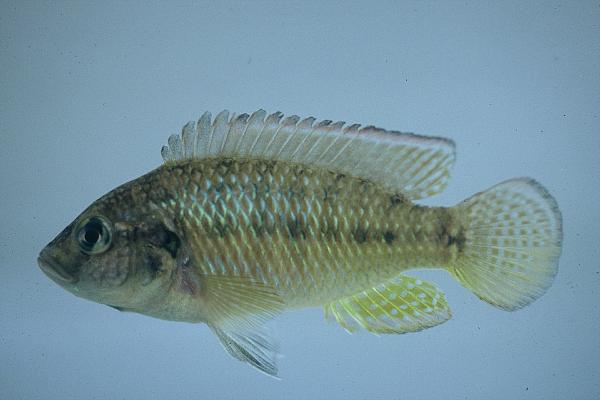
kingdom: Animalia
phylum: Chordata
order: Perciformes
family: Cichlidae
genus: Pseudocrenilabrus
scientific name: Pseudocrenilabrus philander
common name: Southern mouthbrooder
